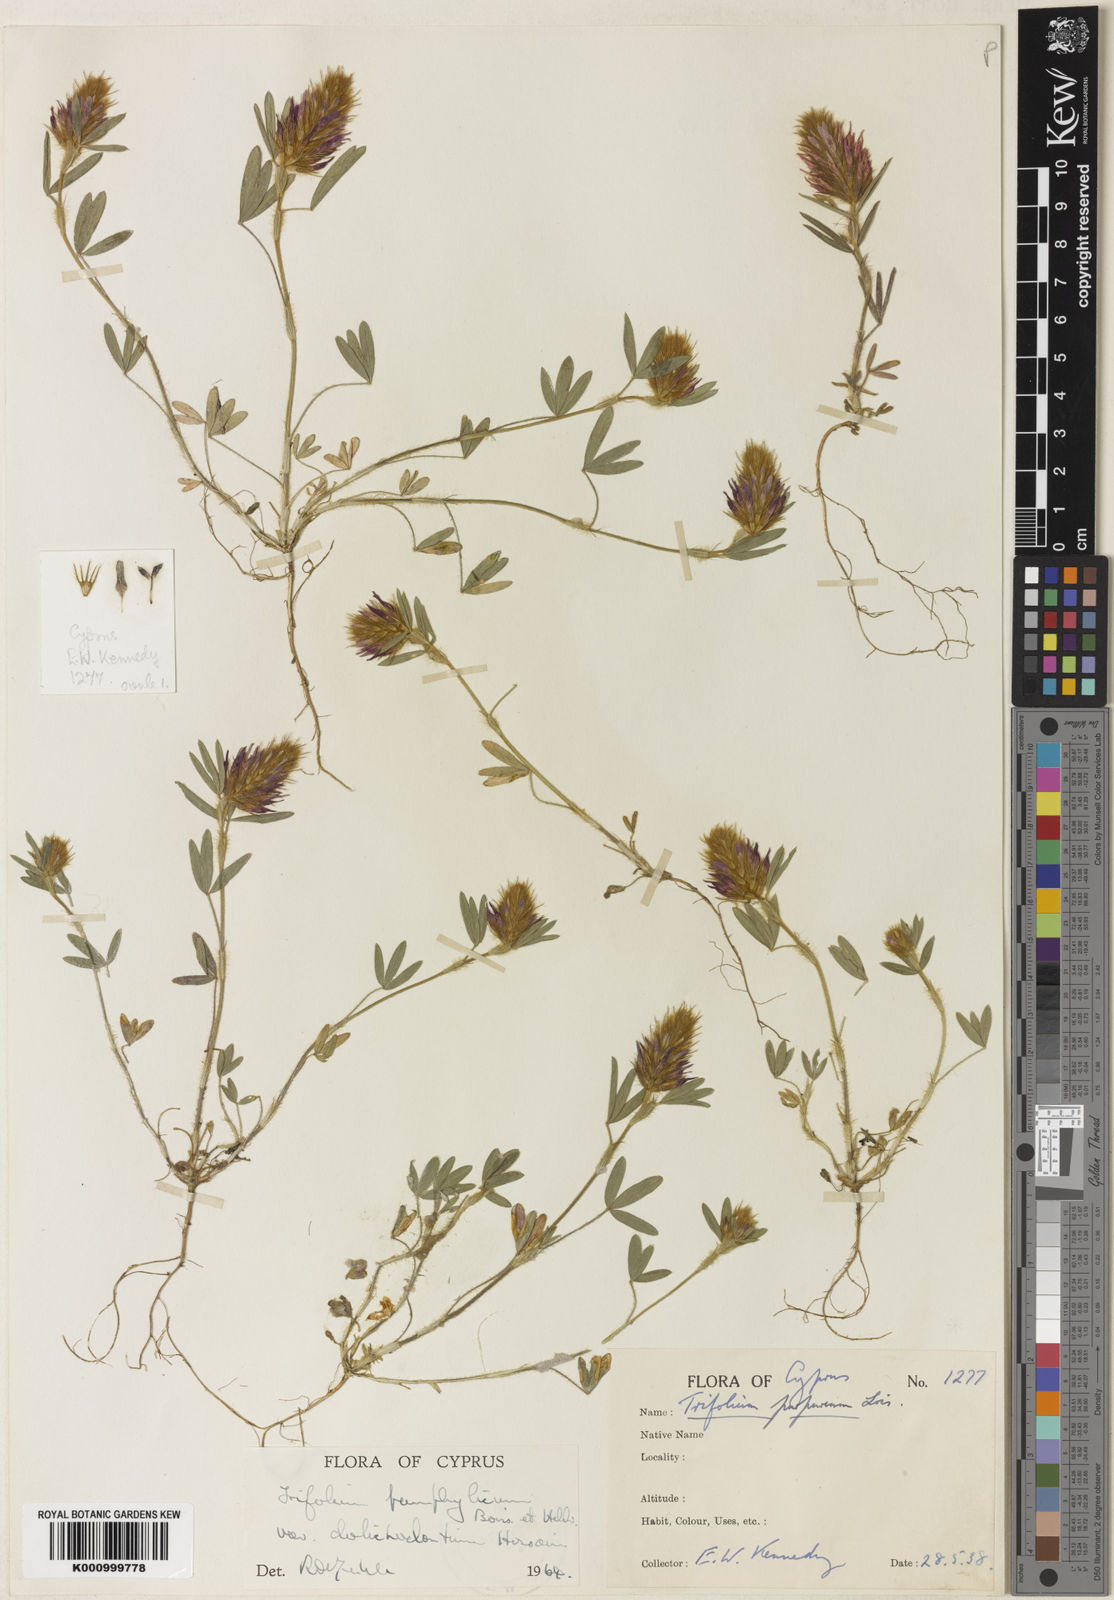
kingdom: Plantae
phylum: Tracheophyta
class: Magnoliopsida
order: Fabales
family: Fabaceae
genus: Trifolium
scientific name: Trifolium pamphylicum
